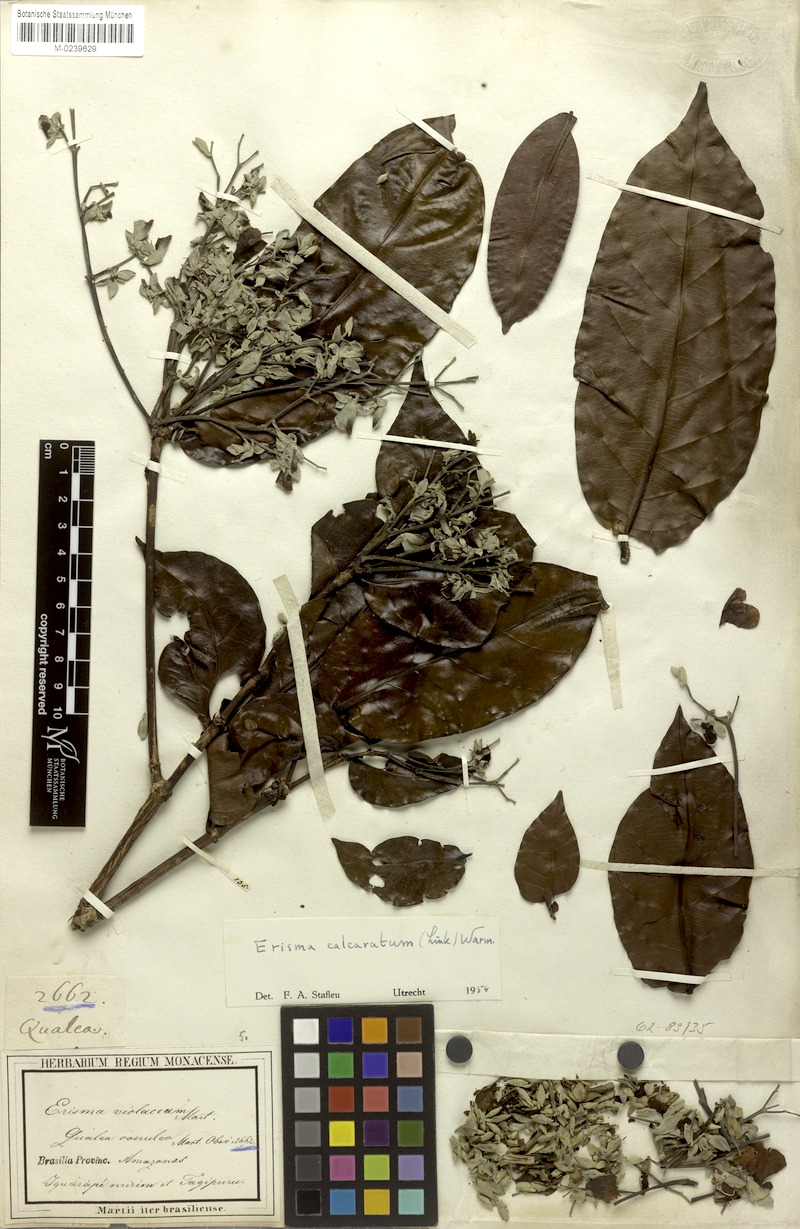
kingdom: Plantae
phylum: Tracheophyta
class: Magnoliopsida
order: Myrtales
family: Vochysiaceae
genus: Erisma
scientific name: Erisma calcaratum
